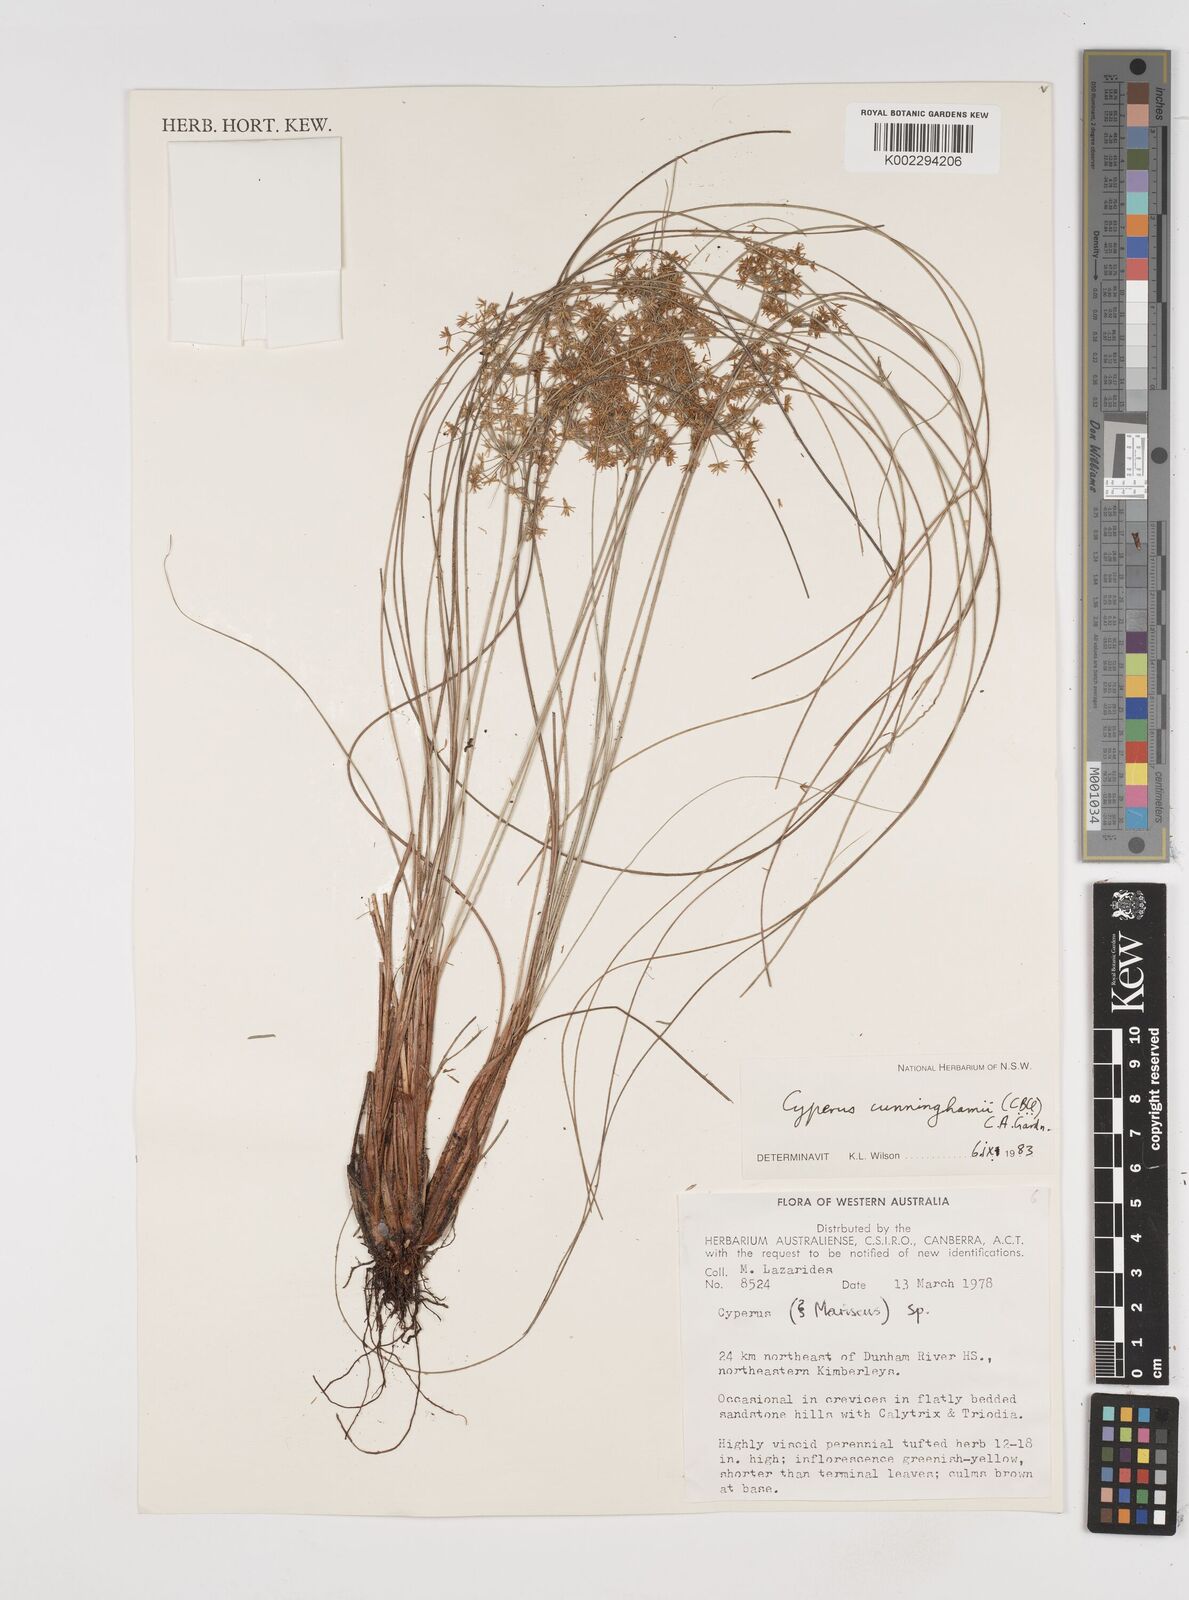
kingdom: Plantae
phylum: Tracheophyta
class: Liliopsida
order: Poales
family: Cyperaceae
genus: Cyperus
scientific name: Cyperus cunninghamii
